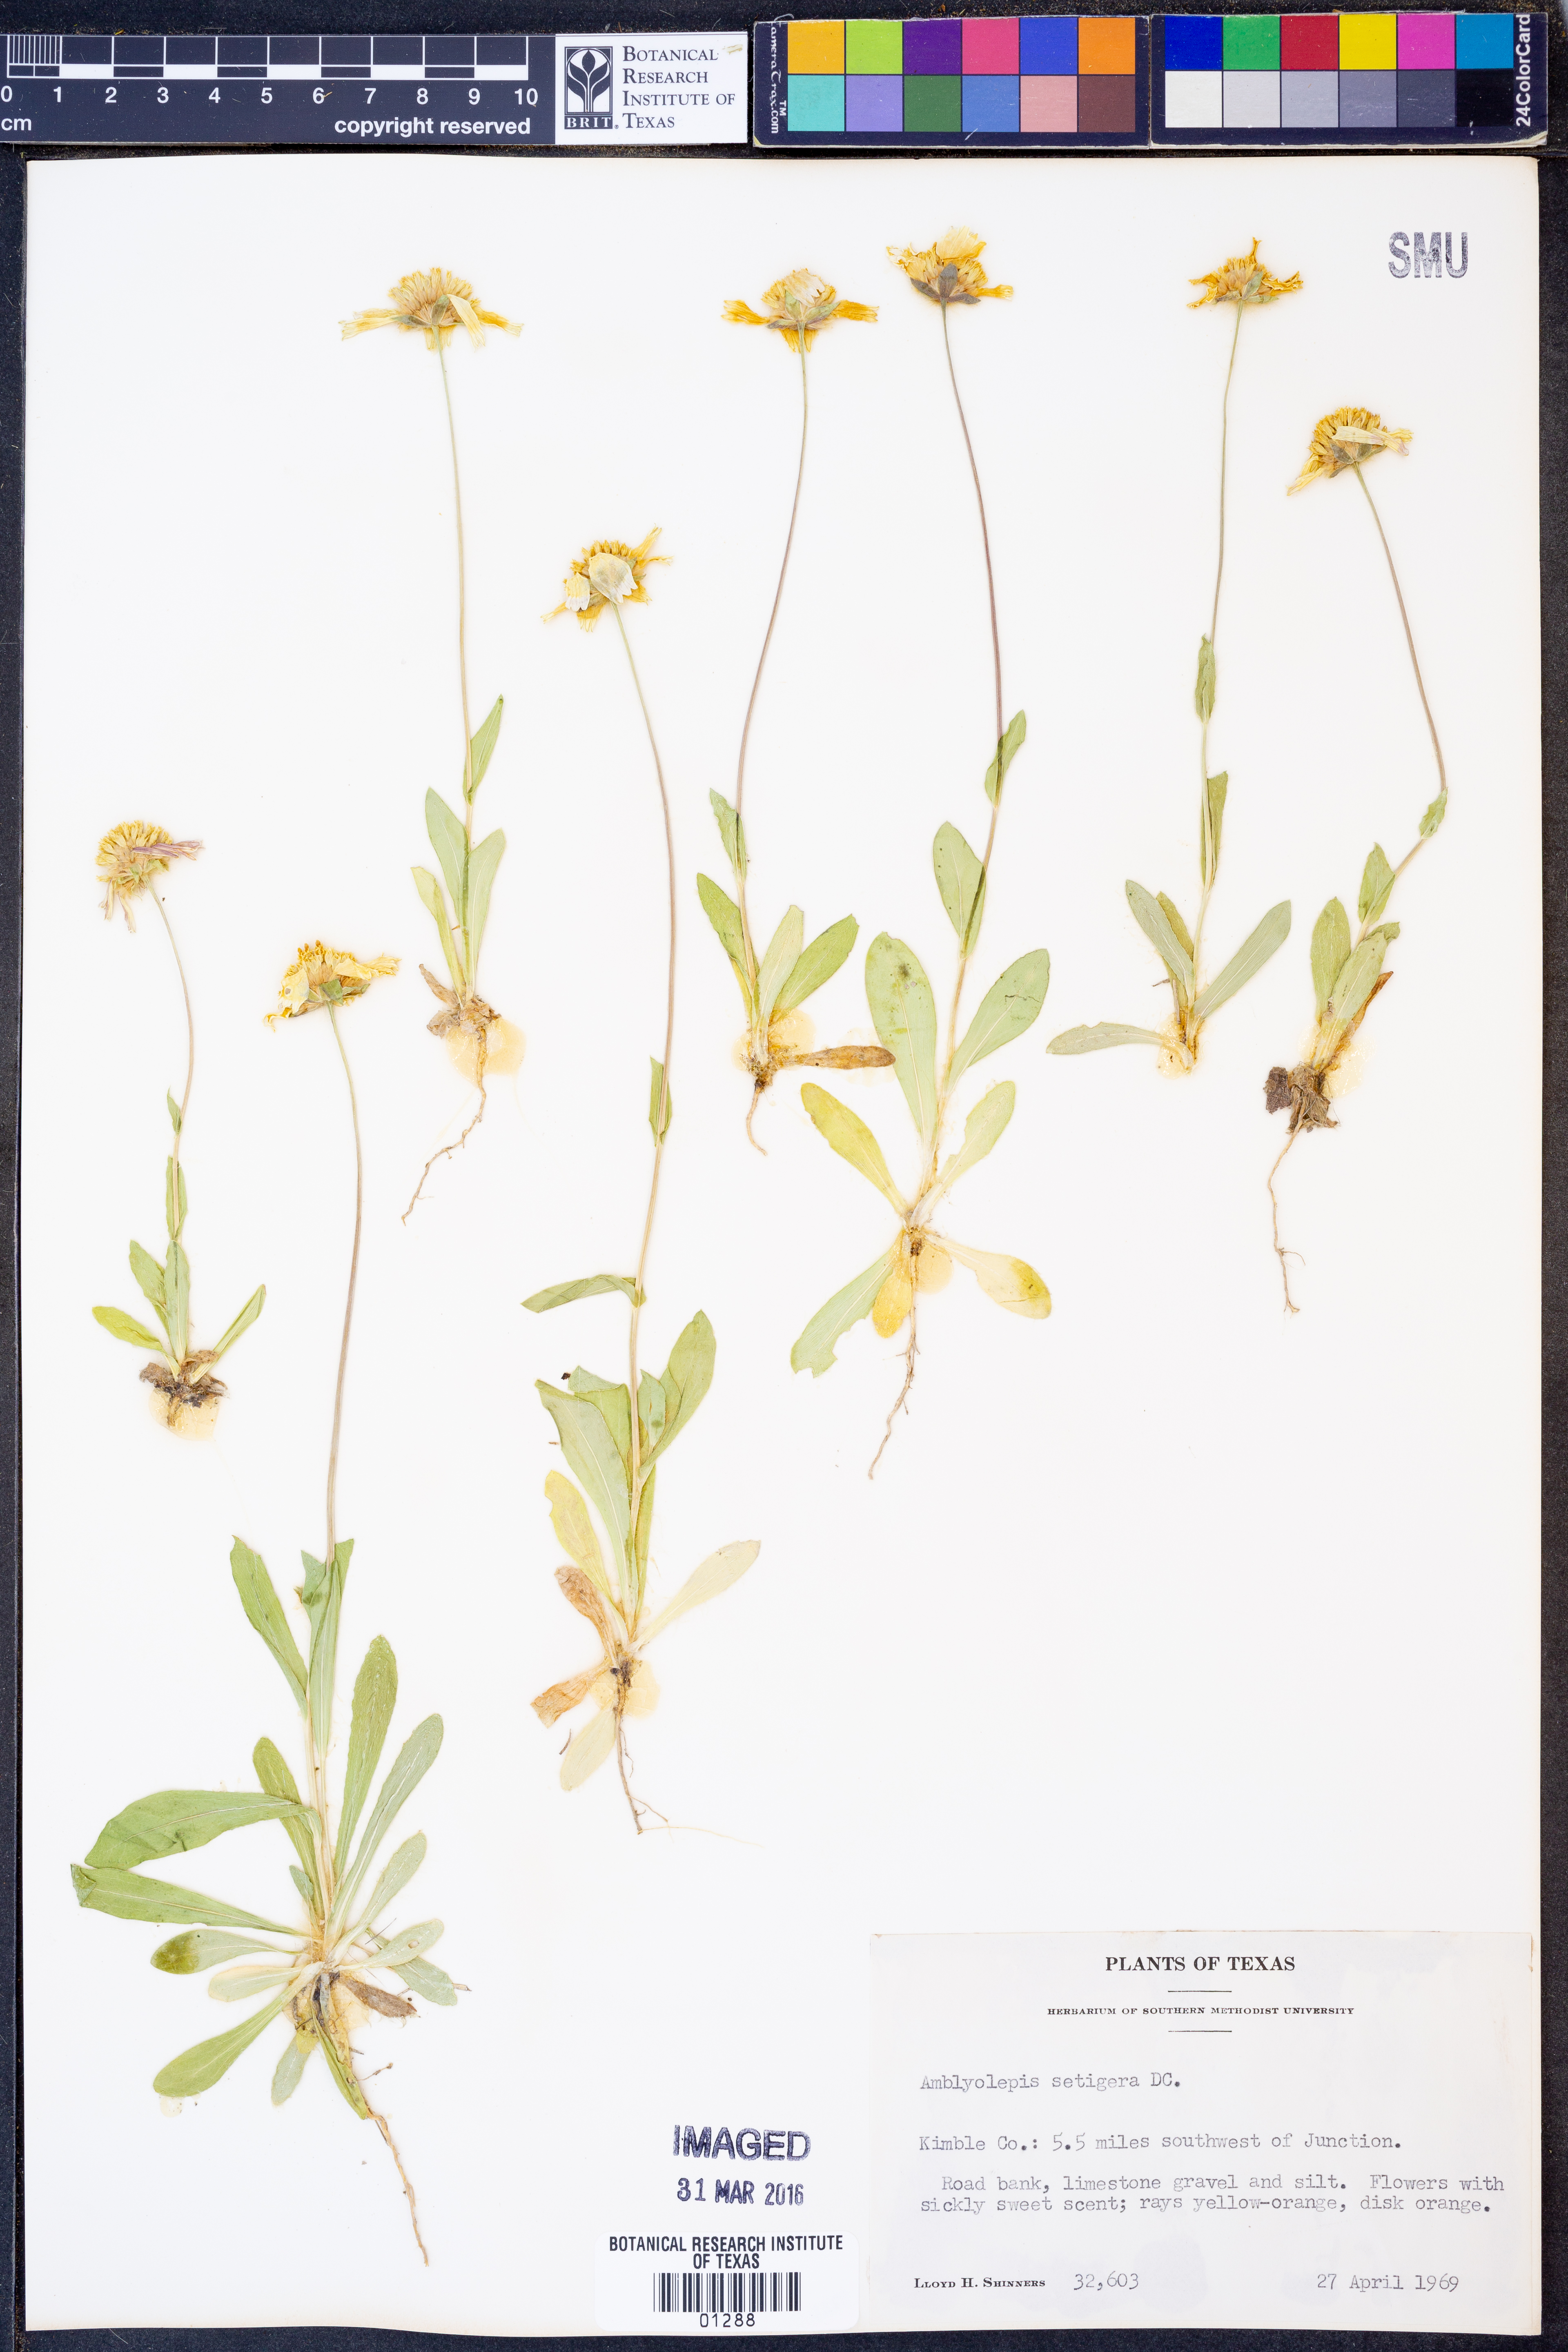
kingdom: Plantae
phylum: Tracheophyta
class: Magnoliopsida
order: Asterales
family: Asteraceae
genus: Amblyolepis
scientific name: Amblyolepis setigera
